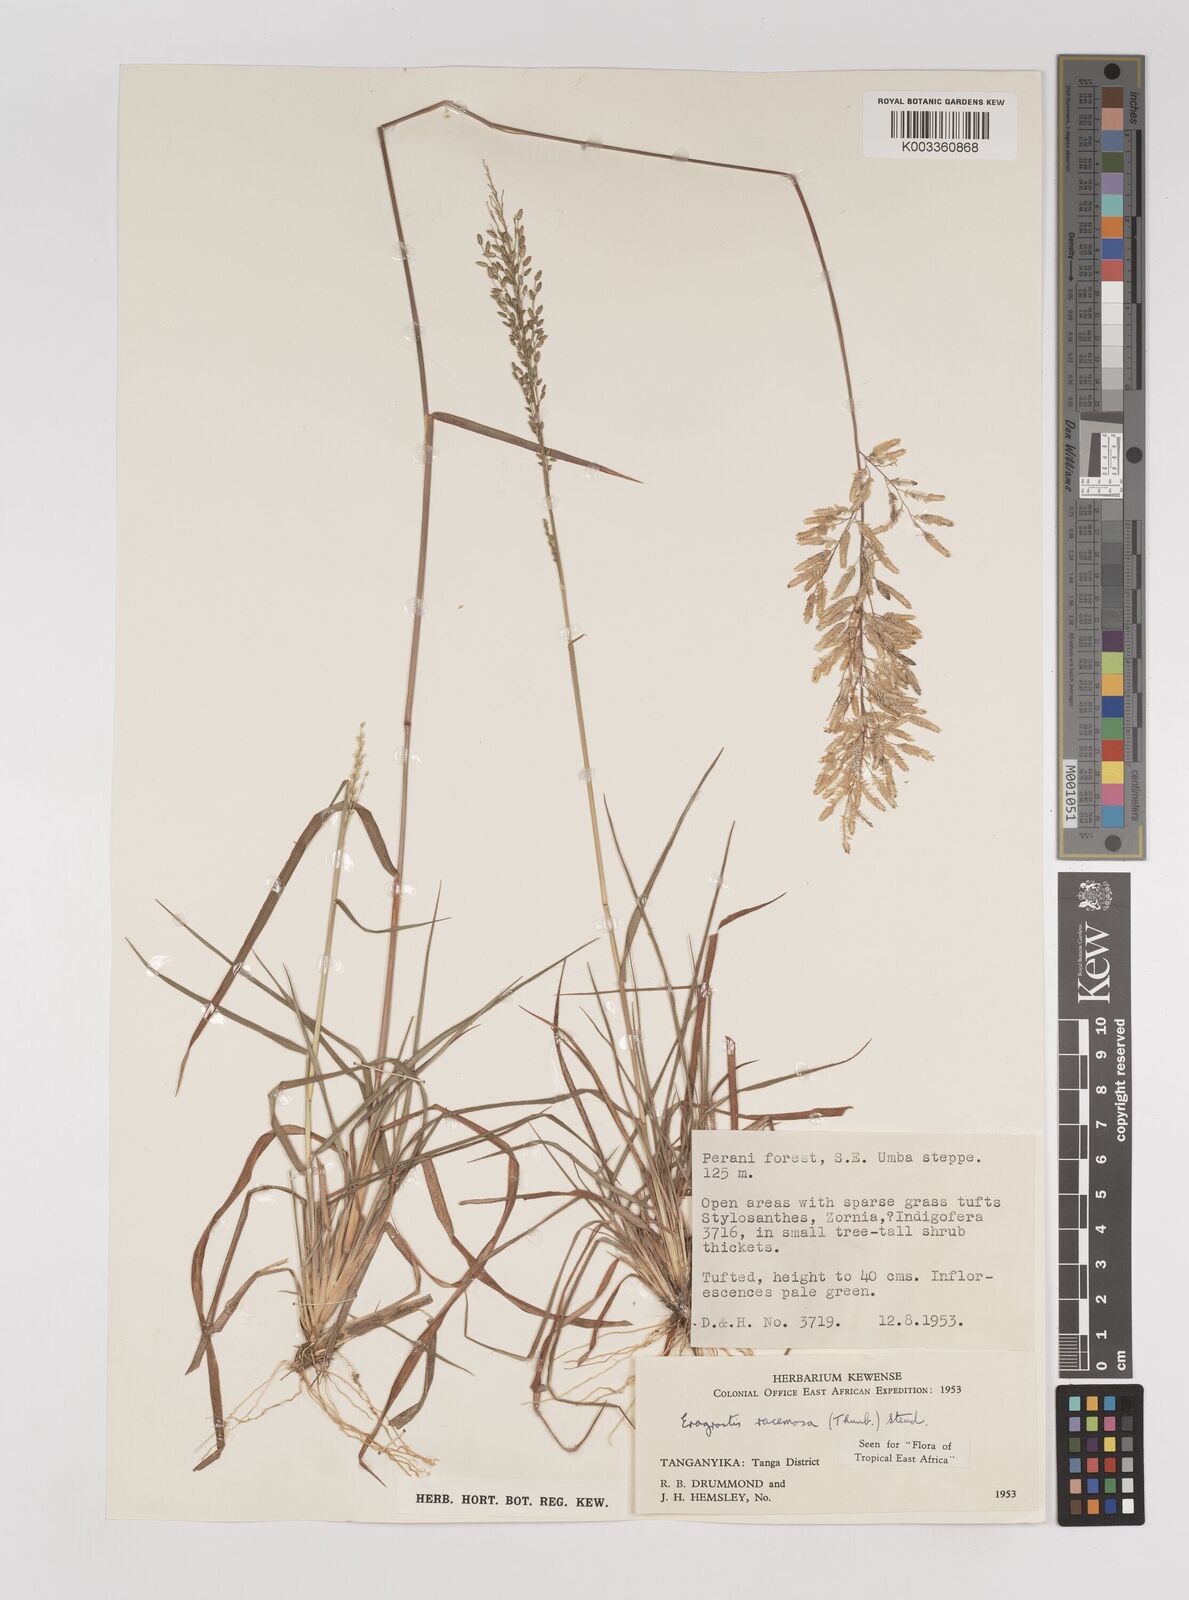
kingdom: Plantae
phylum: Tracheophyta
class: Liliopsida
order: Poales
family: Poaceae
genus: Eragrostis
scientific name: Eragrostis racemosa
